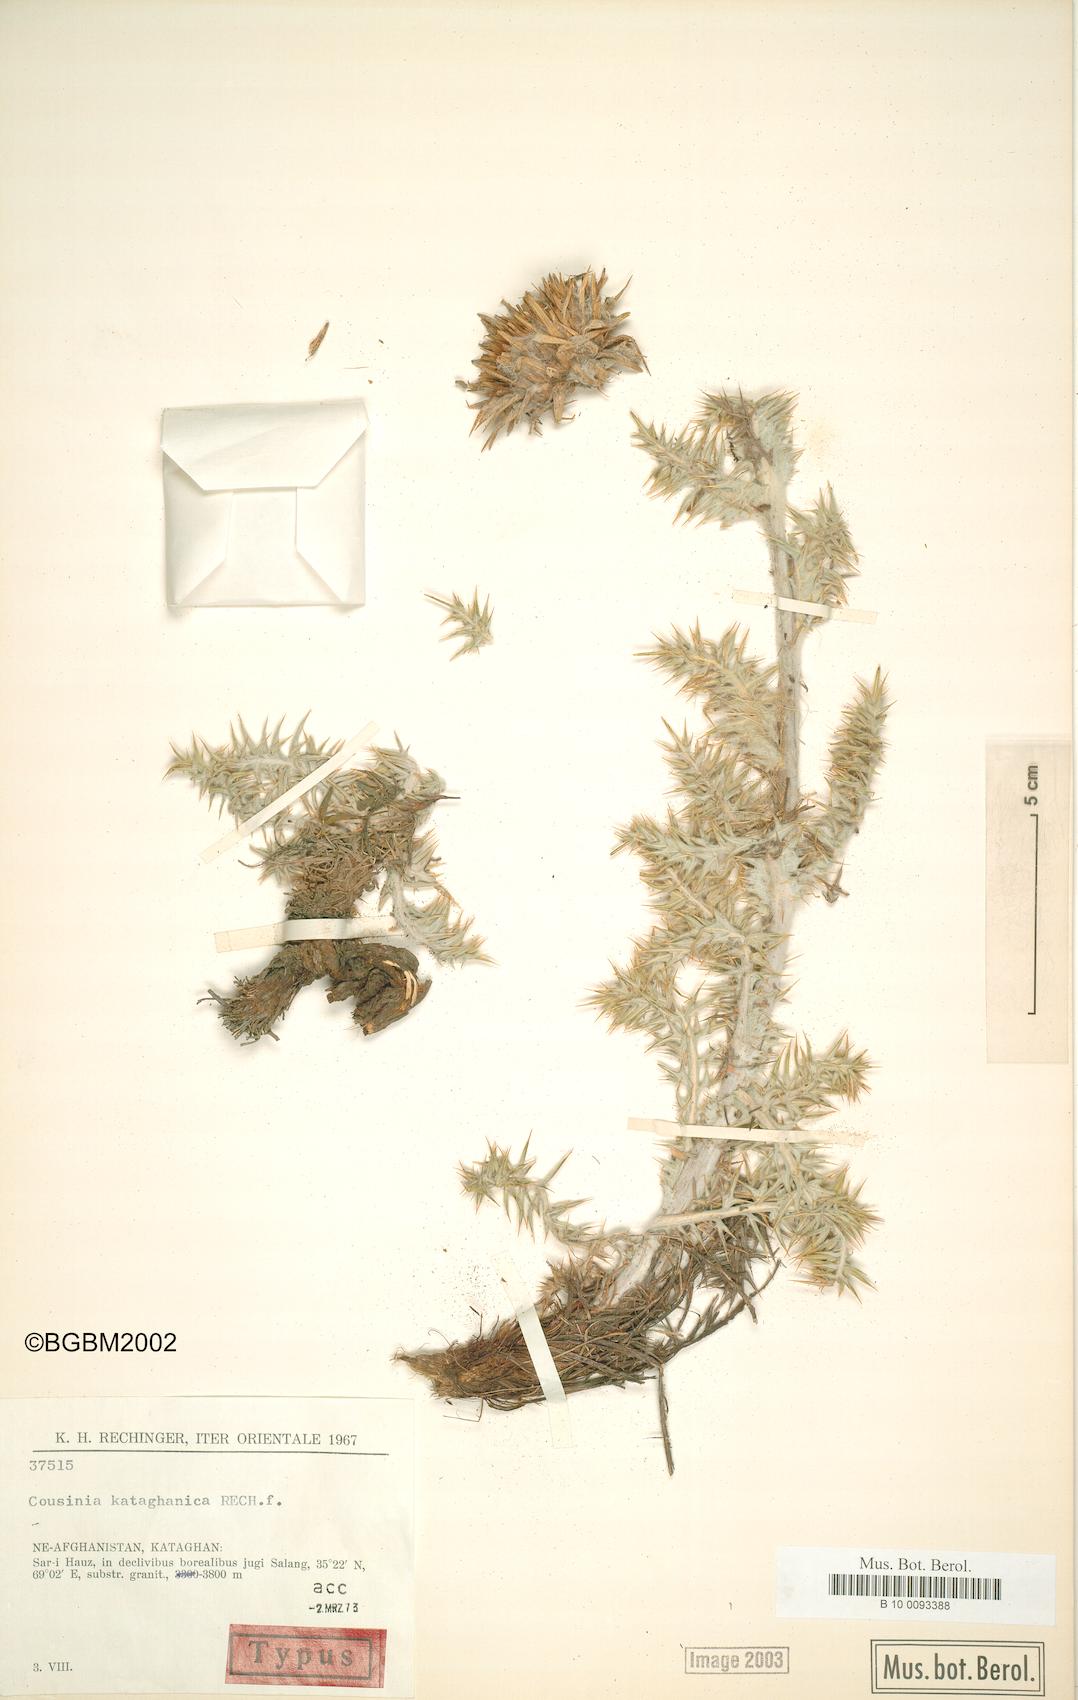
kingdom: Plantae
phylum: Tracheophyta
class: Magnoliopsida
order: Asterales
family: Asteraceae
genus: Cousinia
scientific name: Cousinia kataghanica
